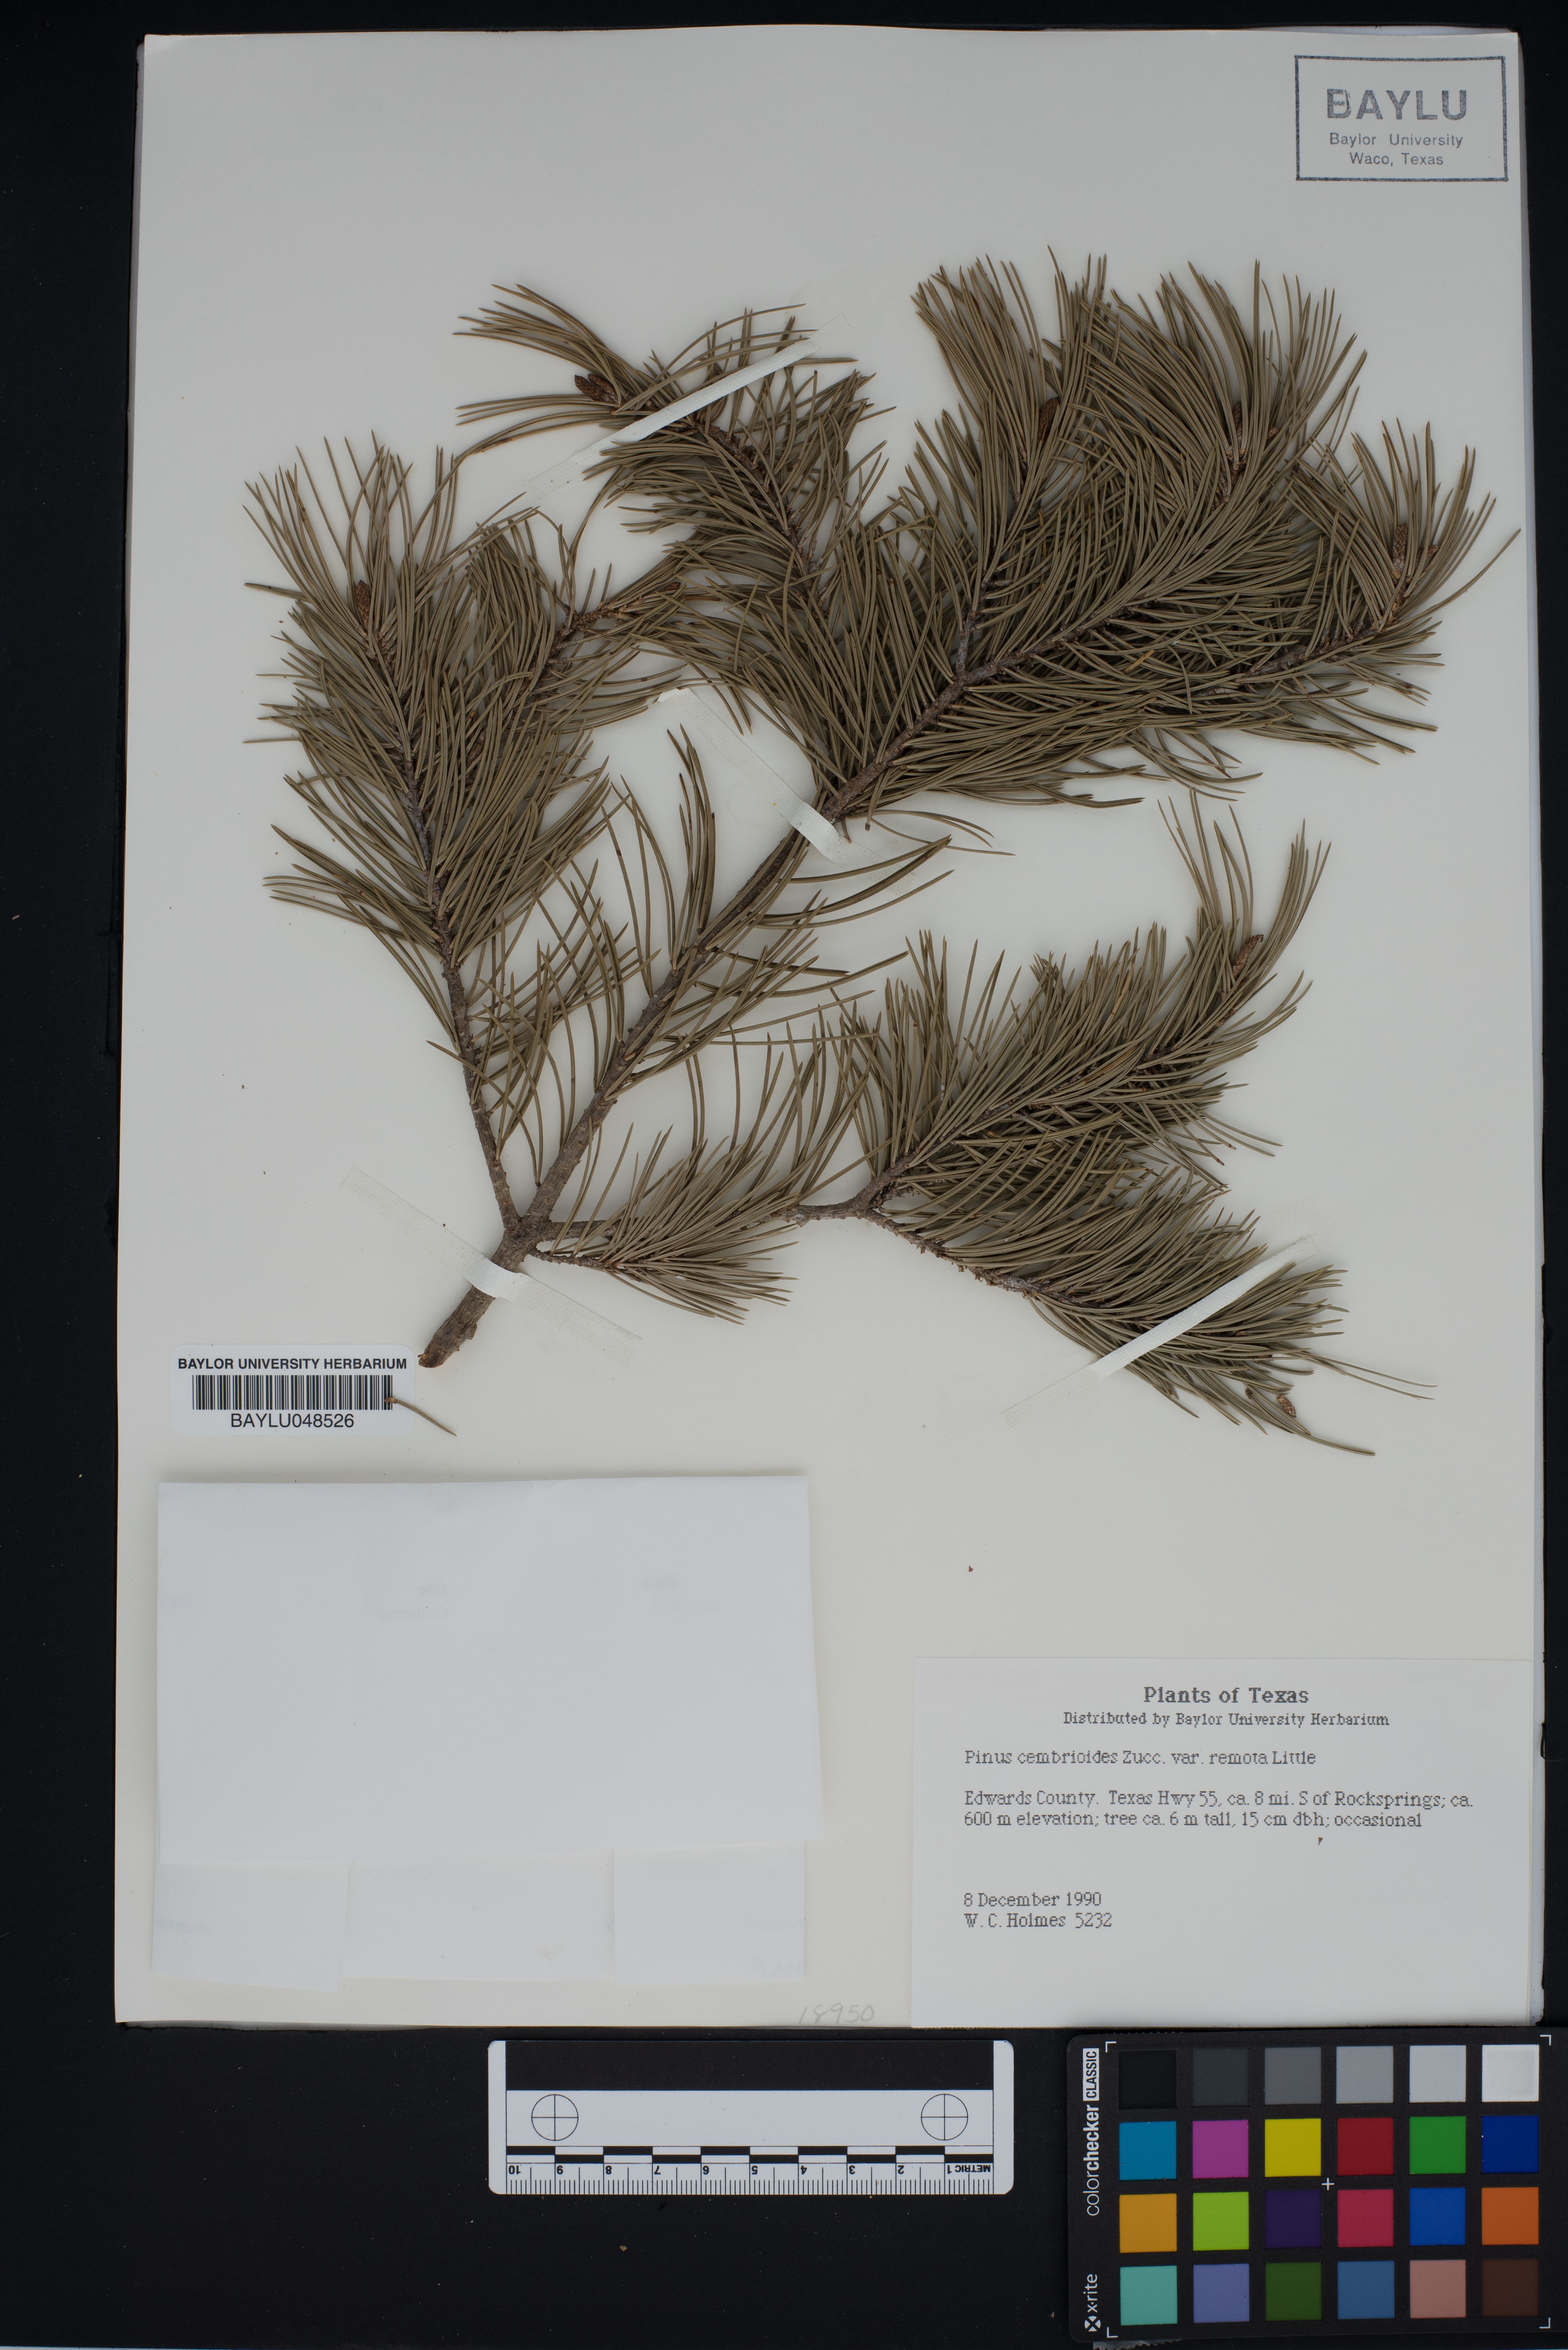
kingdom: Plantae
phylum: Tracheophyta
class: Pinopsida
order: Pinales
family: Pinaceae
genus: Pinus
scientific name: Pinus cembroides
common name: Mexican nut pine
